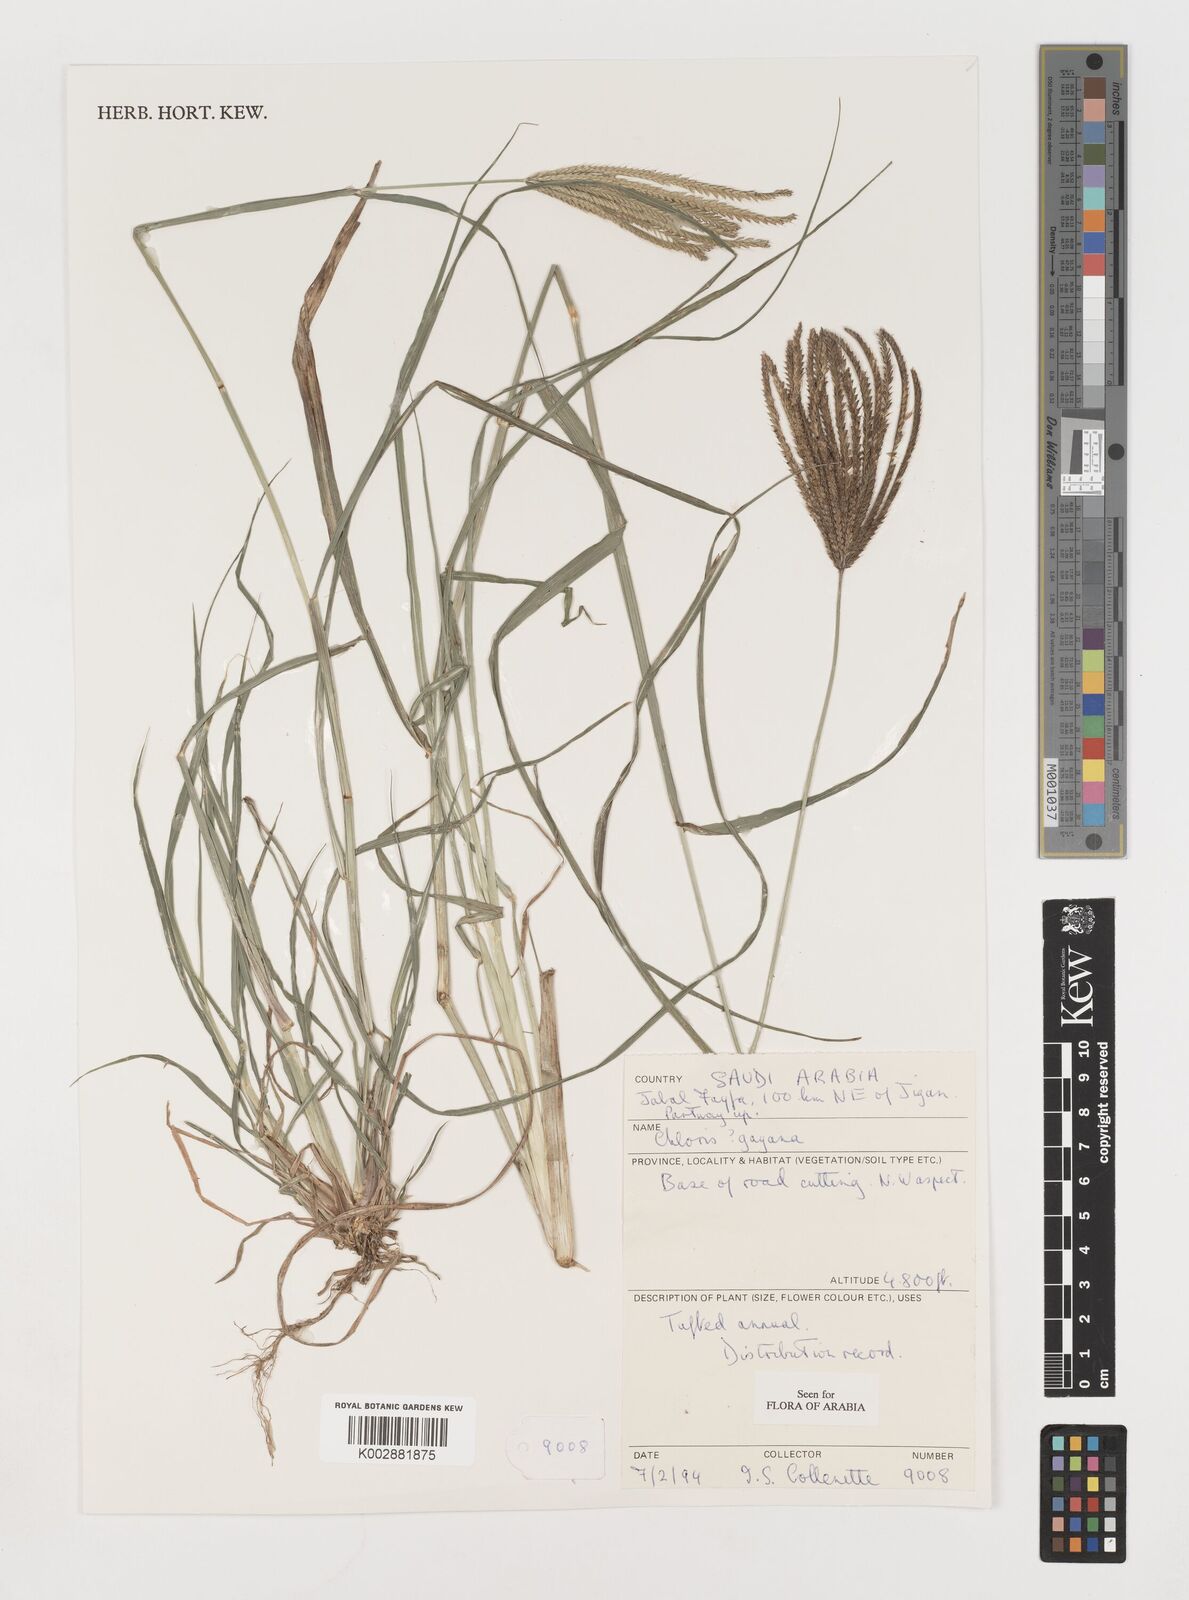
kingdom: Plantae
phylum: Tracheophyta
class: Liliopsida
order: Poales
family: Poaceae
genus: Chloris
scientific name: Chloris gayana
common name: Rhodes grass
